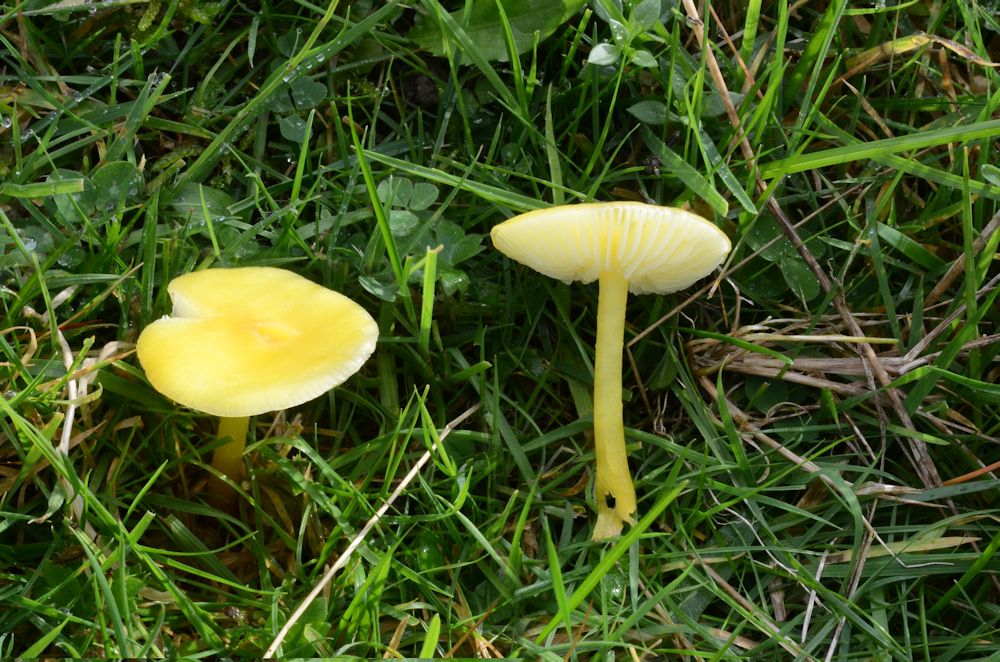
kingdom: Fungi
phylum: Basidiomycota
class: Agaricomycetes
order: Agaricales
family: Hygrophoraceae
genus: Hygrocybe
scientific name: Hygrocybe glutinipes
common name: slimstokket vokshat
